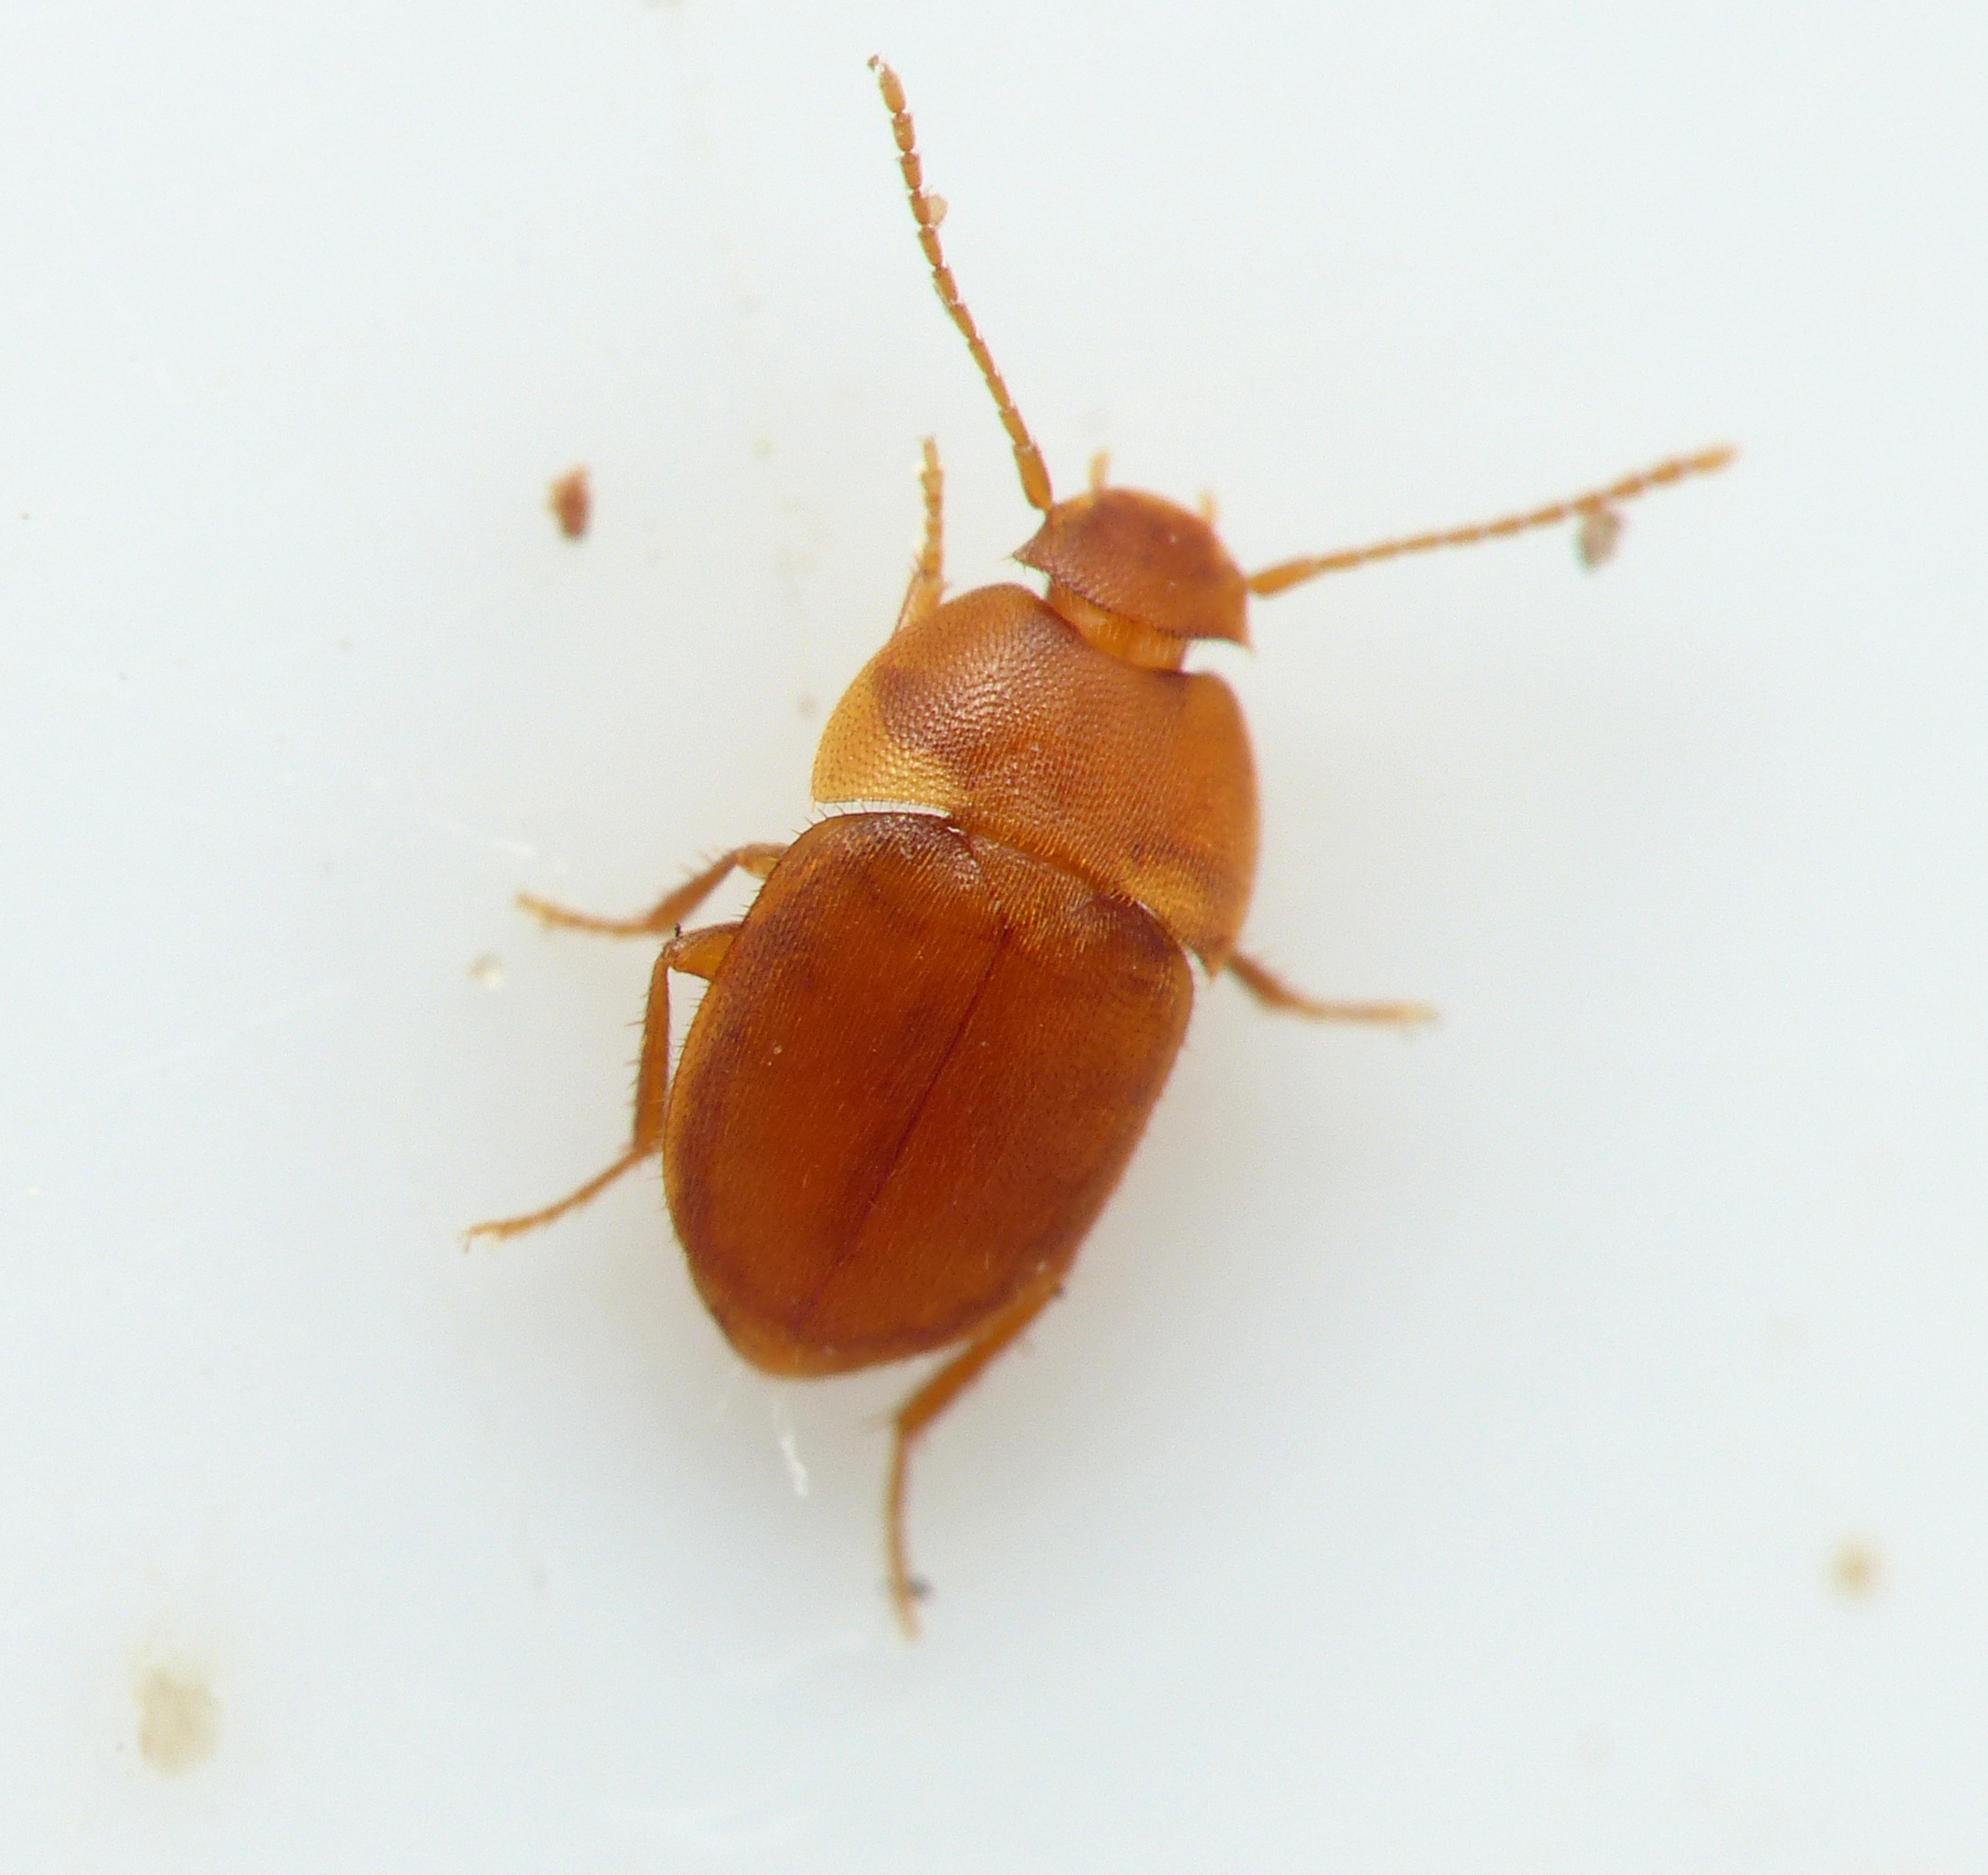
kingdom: Animalia
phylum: Arthropoda
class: Insecta
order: Coleoptera
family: Leiodidae
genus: Leptinus
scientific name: Leptinus testaceus
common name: Musebille
